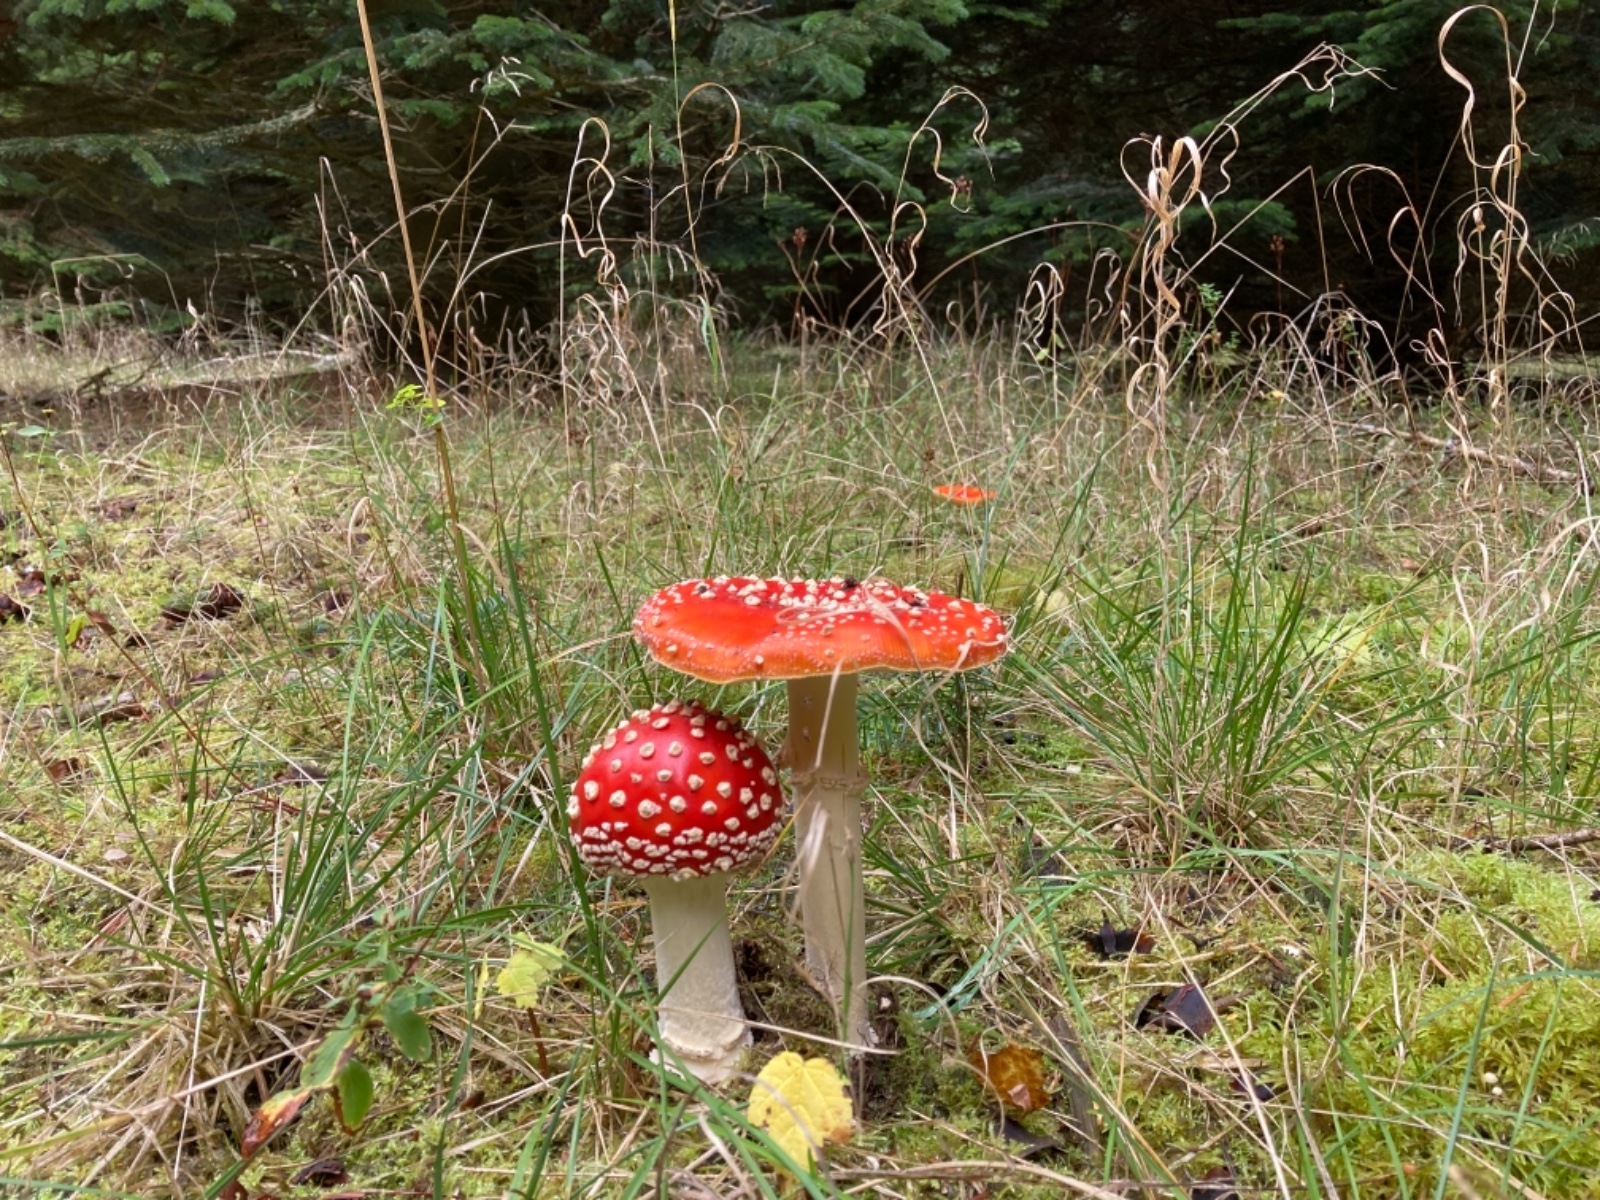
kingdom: Fungi
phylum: Basidiomycota
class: Agaricomycetes
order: Agaricales
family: Amanitaceae
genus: Amanita
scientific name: Amanita muscaria
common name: rød fluesvamp
